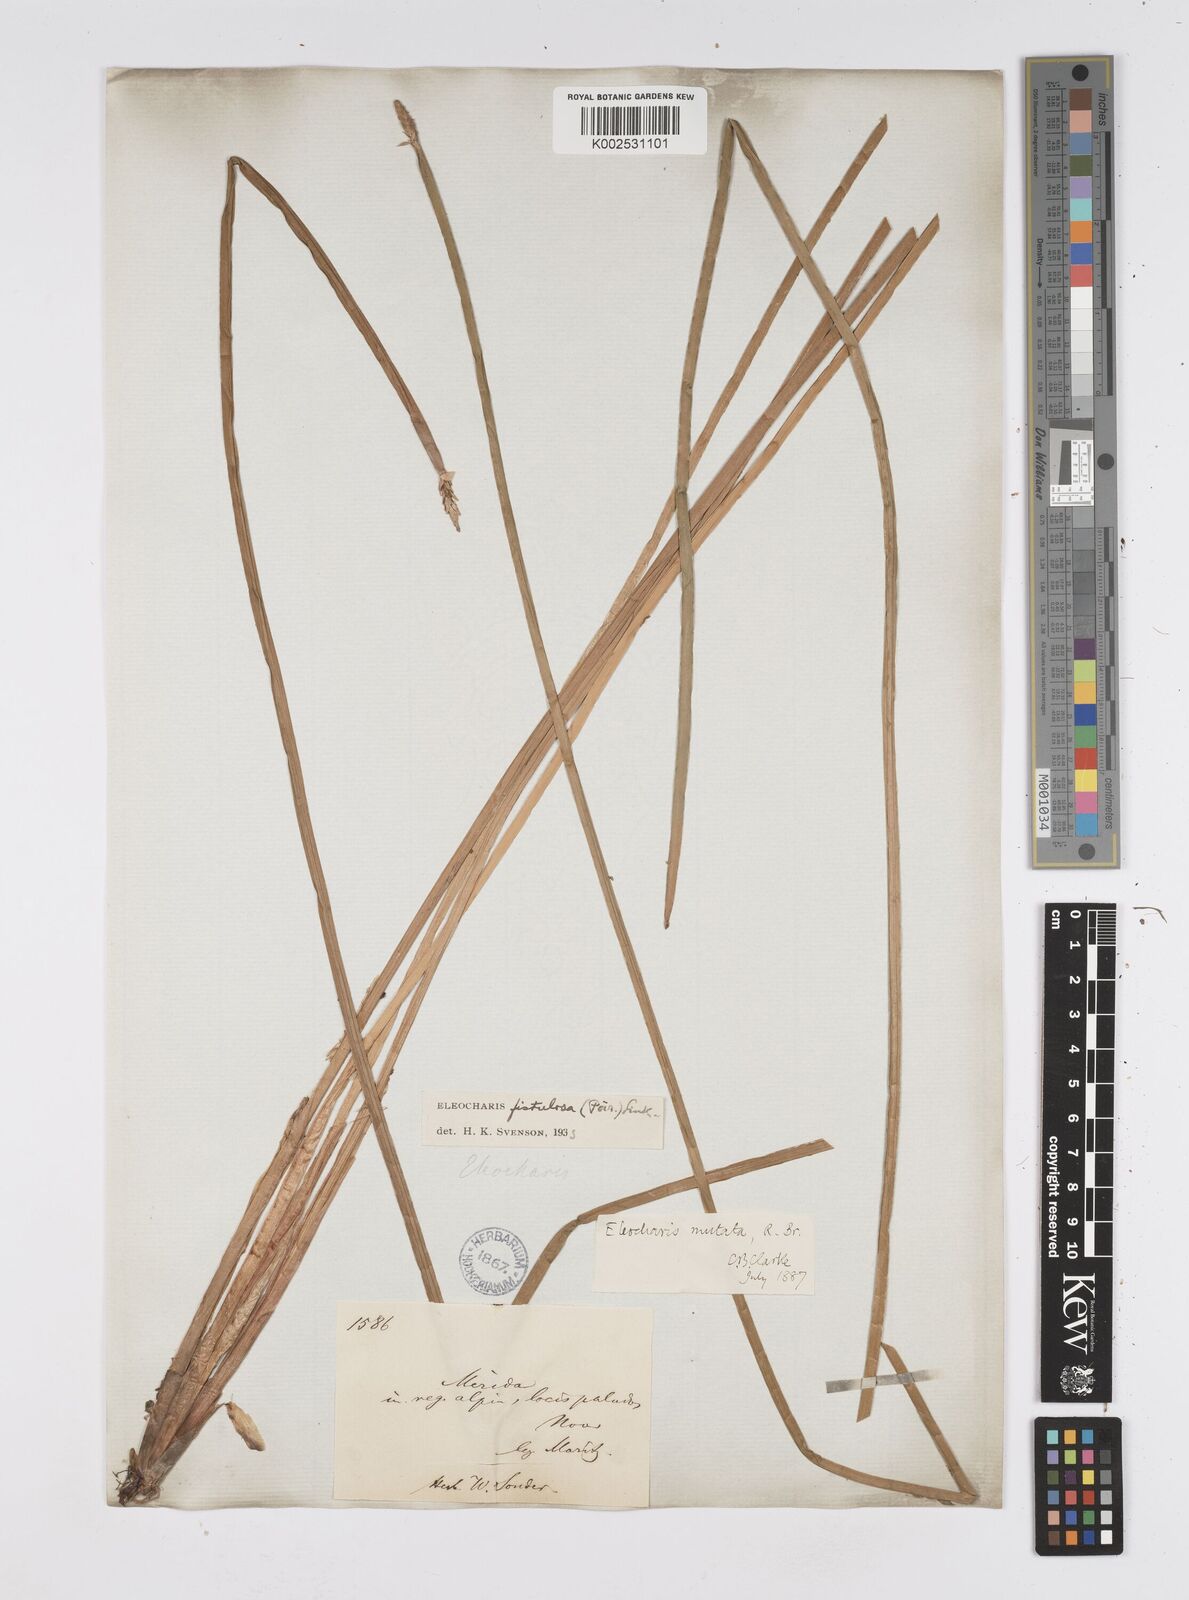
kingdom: Plantae
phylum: Tracheophyta
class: Liliopsida
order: Poales
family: Cyperaceae
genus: Eleocharis
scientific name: Eleocharis acutangula
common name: Acute spikerush
